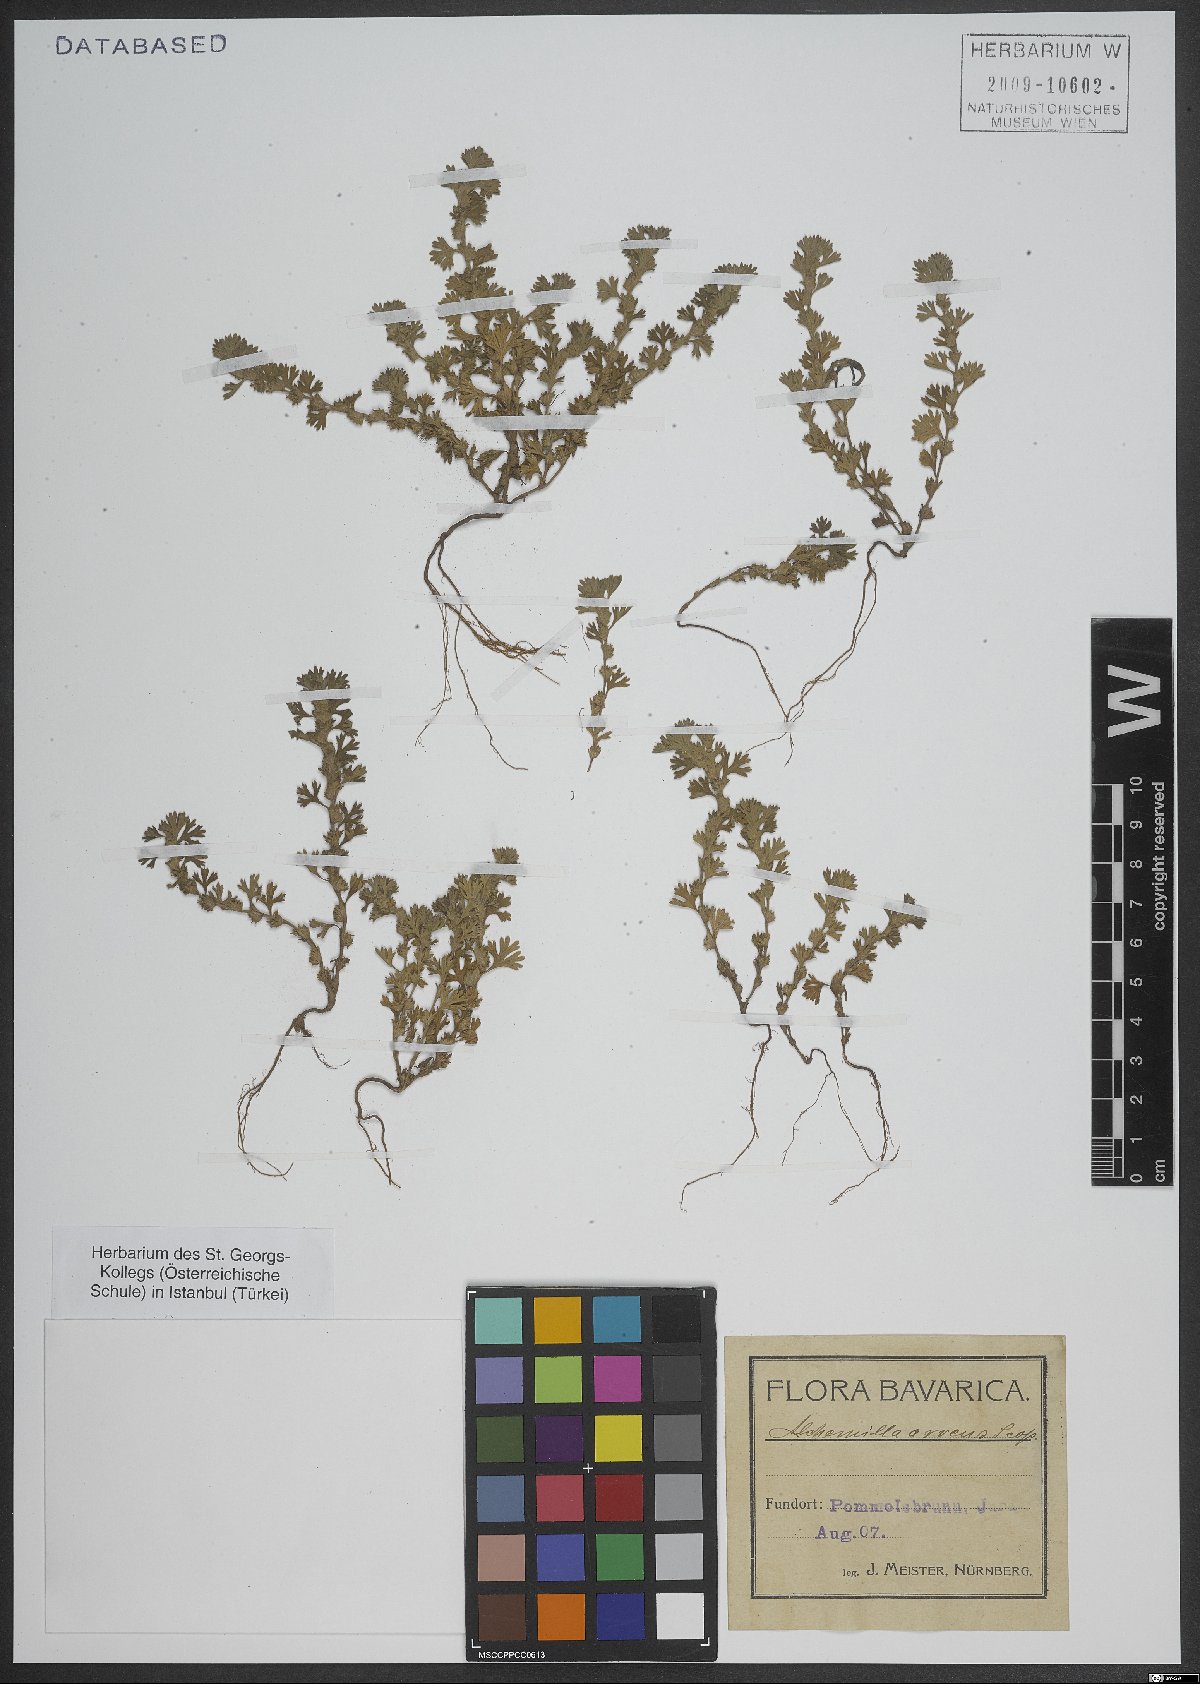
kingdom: Plantae
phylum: Tracheophyta
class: Magnoliopsida
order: Rosales
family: Rosaceae
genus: Aphanes
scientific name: Aphanes arvensis
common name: Parsley-piert
